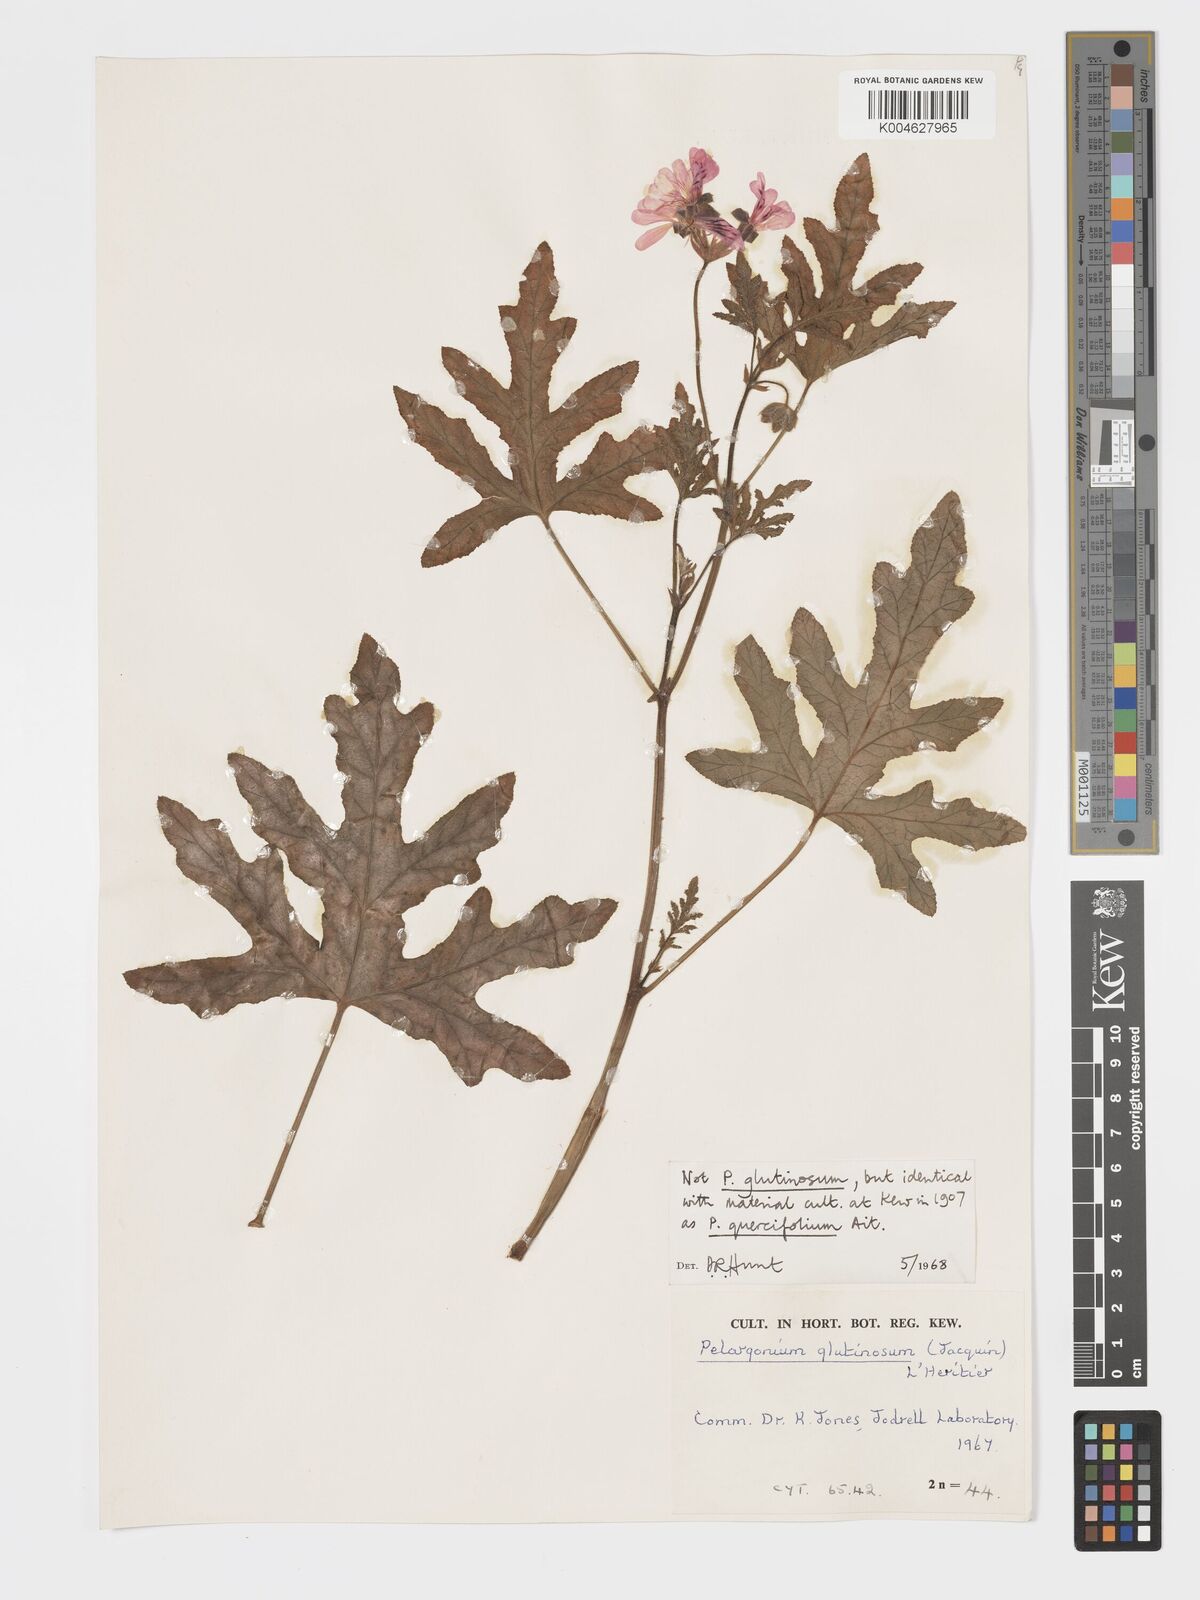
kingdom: Plantae
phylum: Tracheophyta
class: Magnoliopsida
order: Geraniales
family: Geraniaceae
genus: Pelargonium
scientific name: Pelargonium quercifolium
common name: Oakleaf geranium
